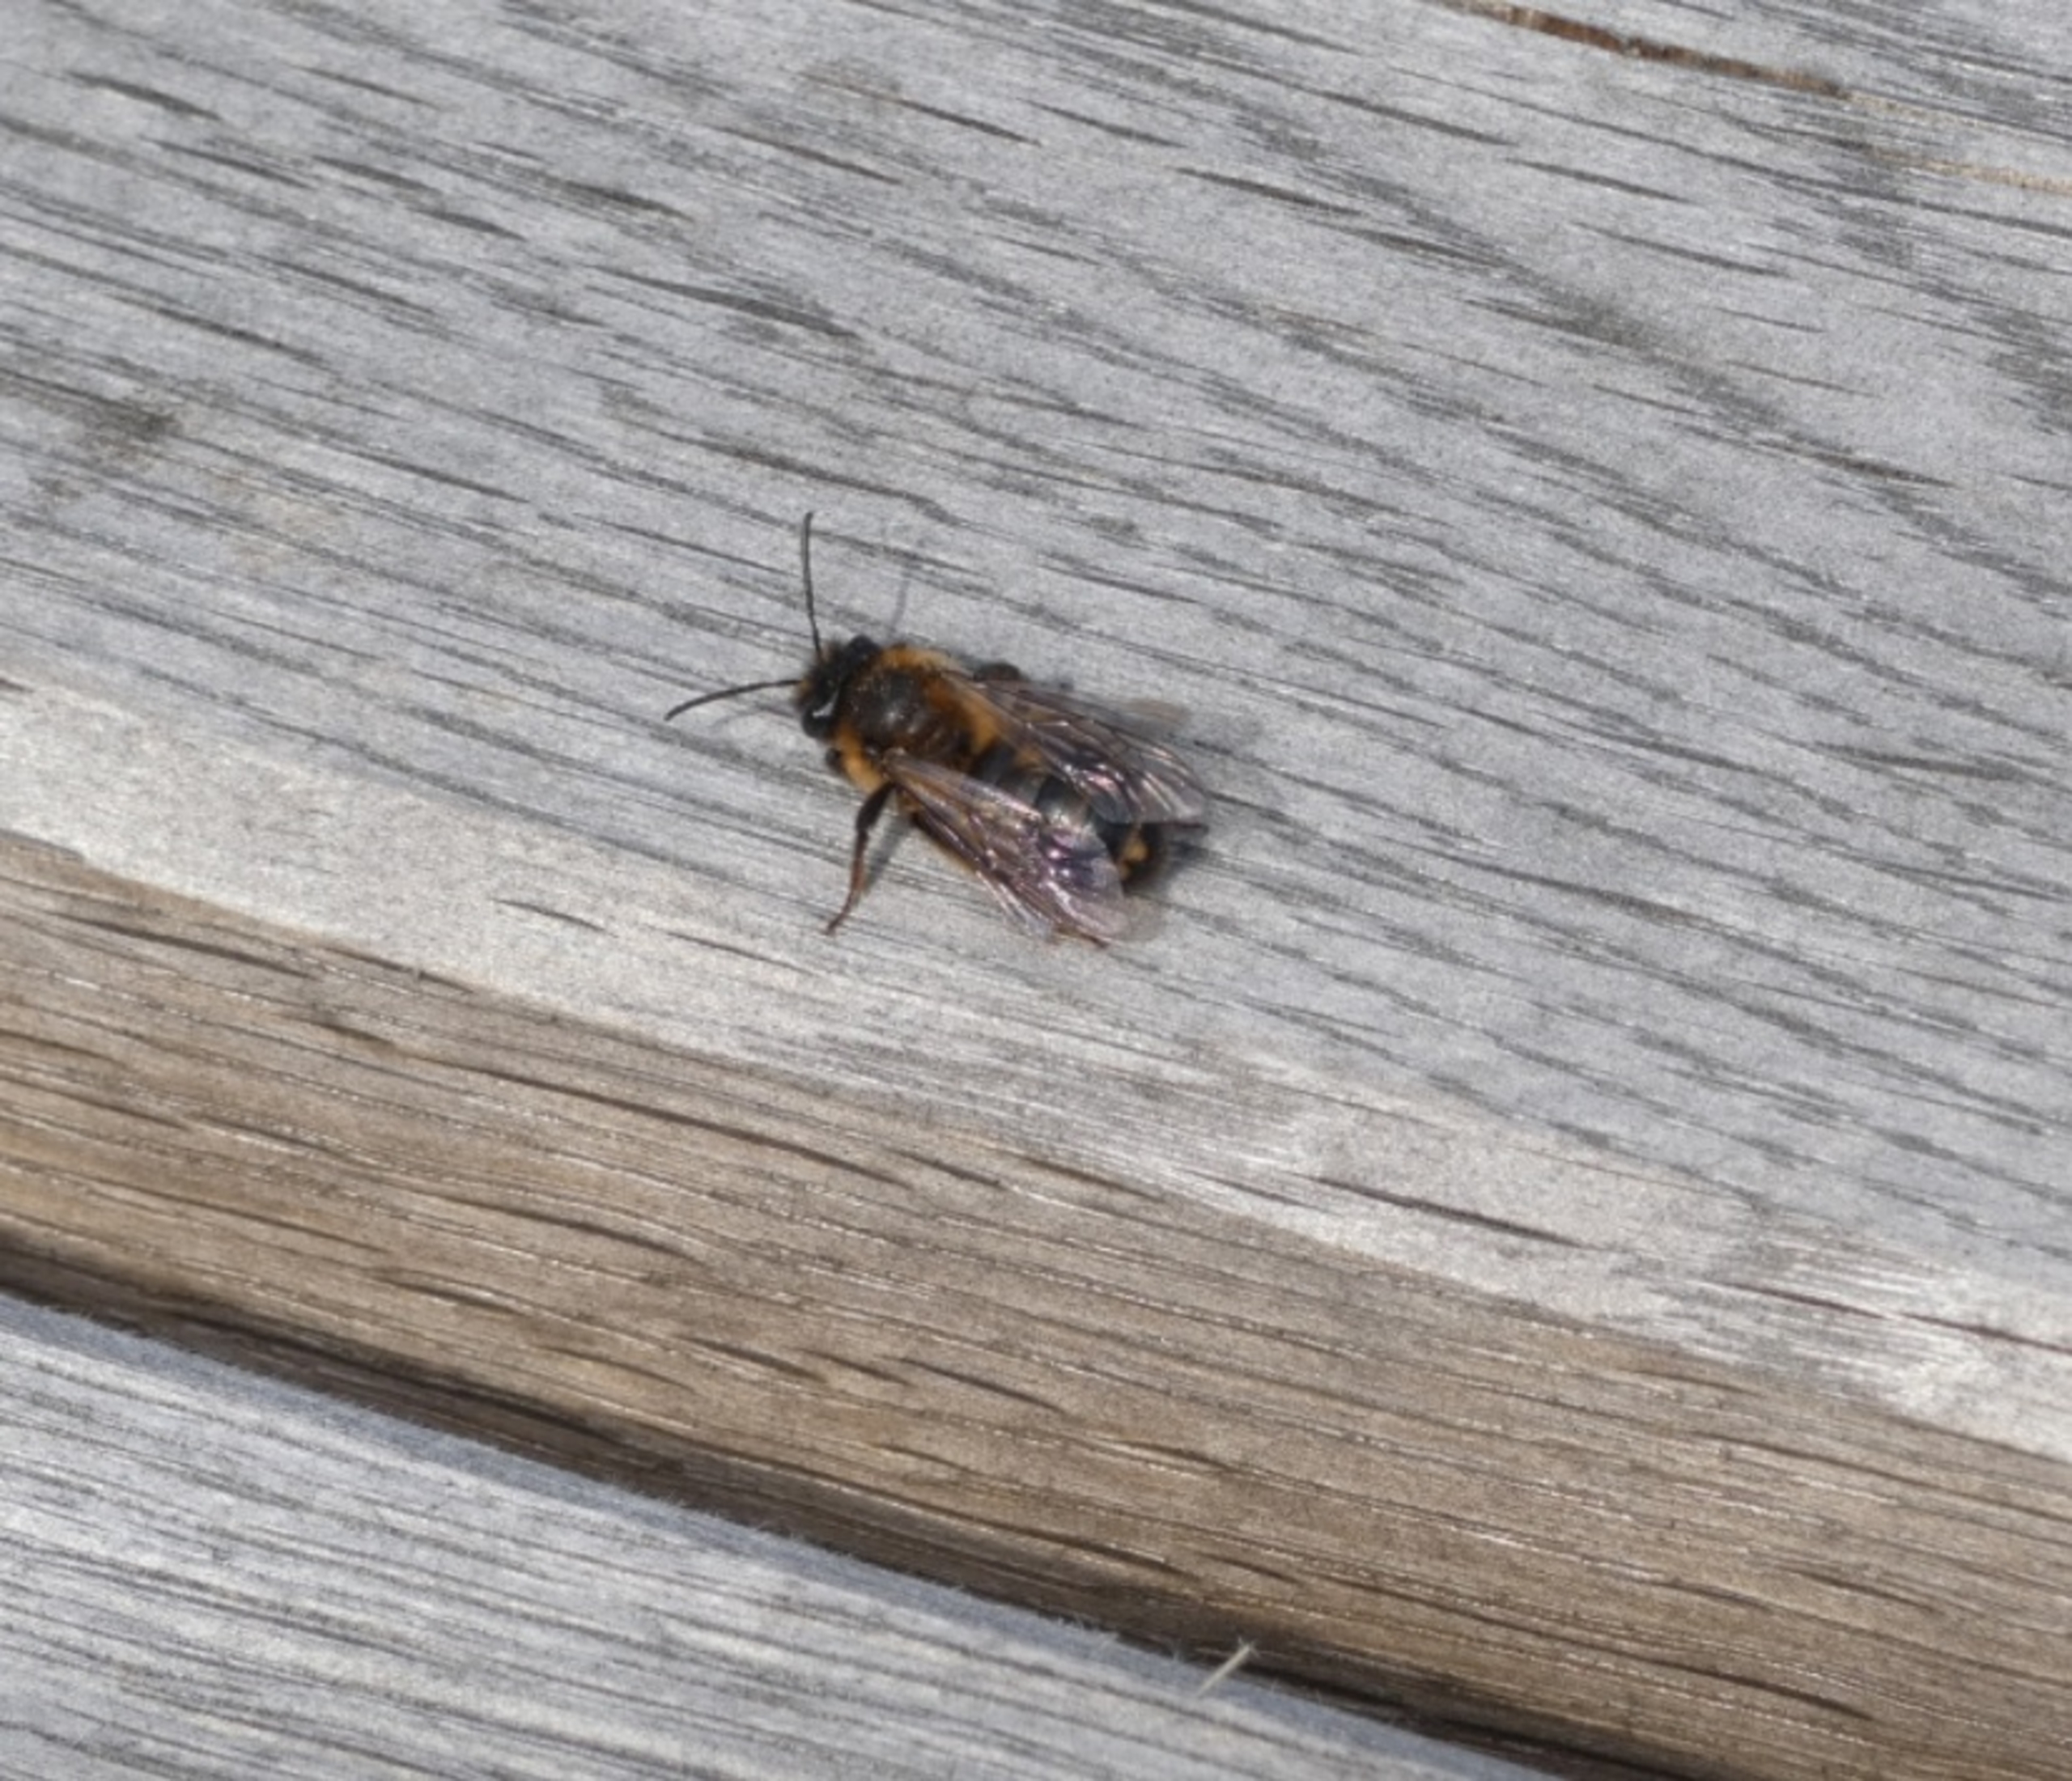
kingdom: Animalia
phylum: Arthropoda
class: Insecta
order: Strepsiptera
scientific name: Strepsiptera
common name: Viftevinger
